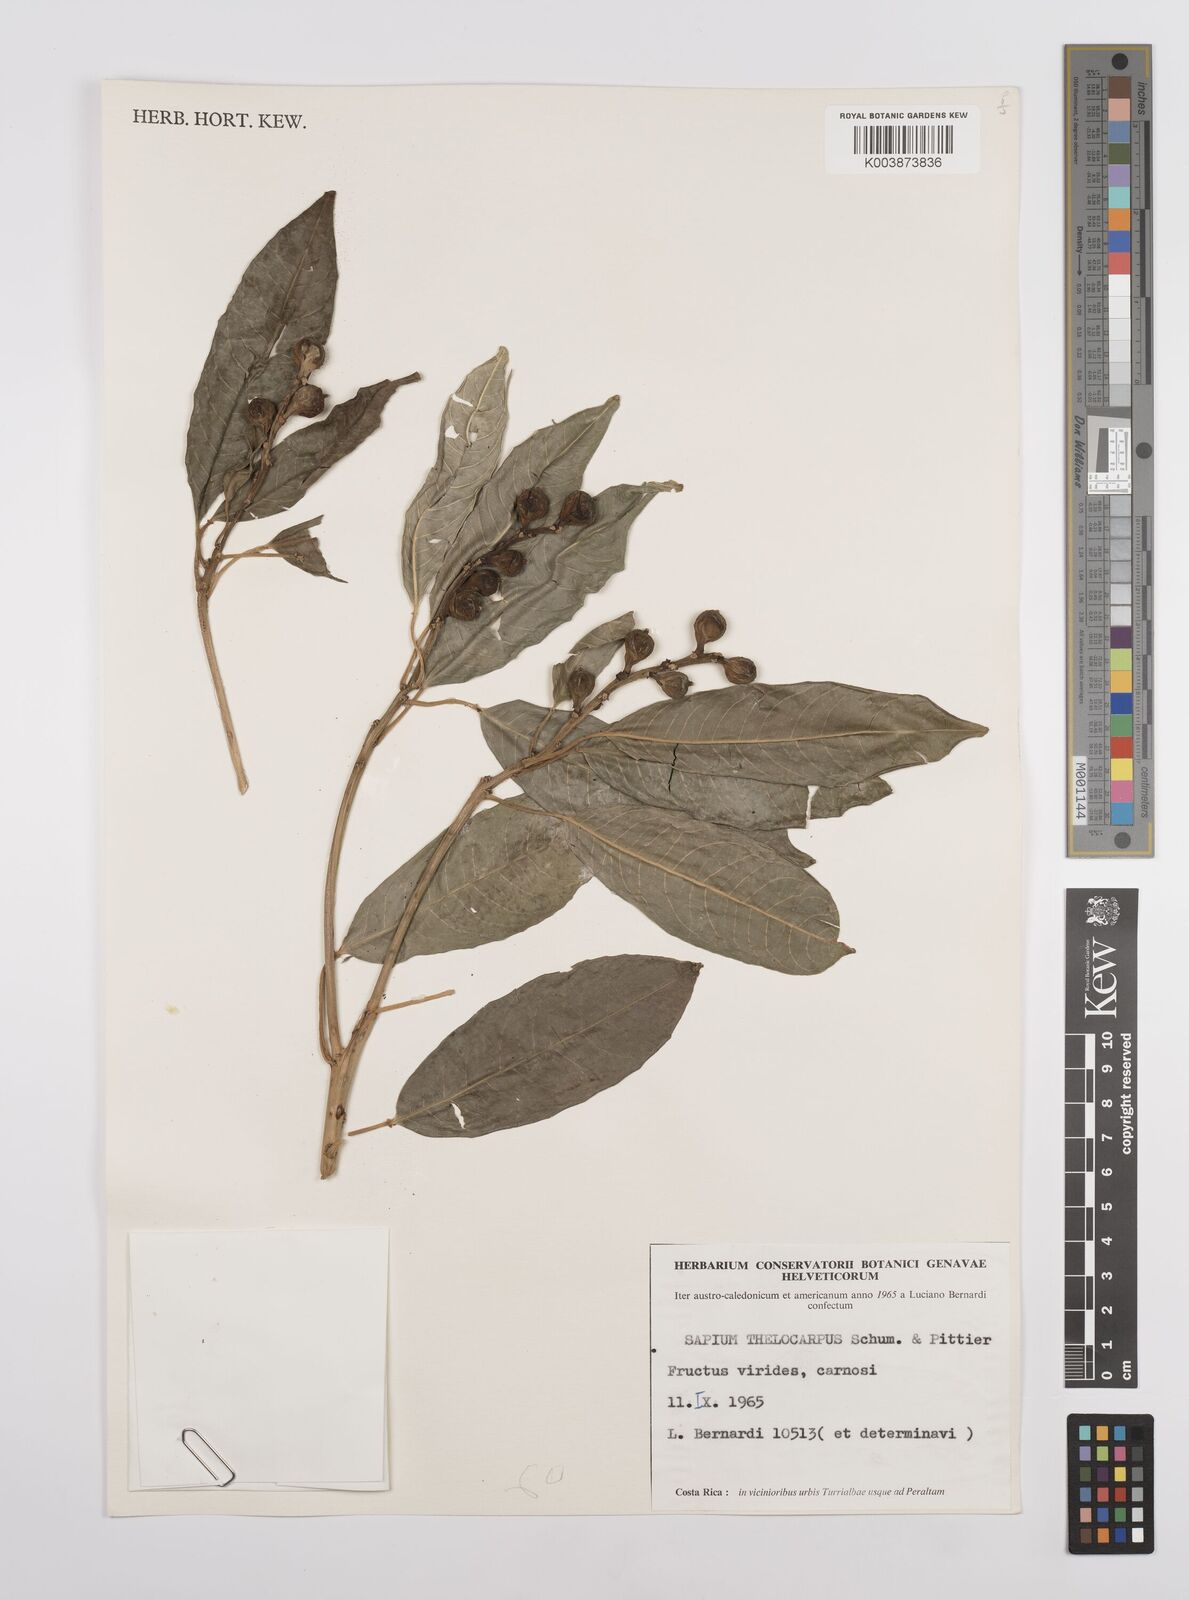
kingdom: Plantae
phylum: Tracheophyta
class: Magnoliopsida
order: Malpighiales
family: Euphorbiaceae
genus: Sapium
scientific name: Sapium macrocarpum
